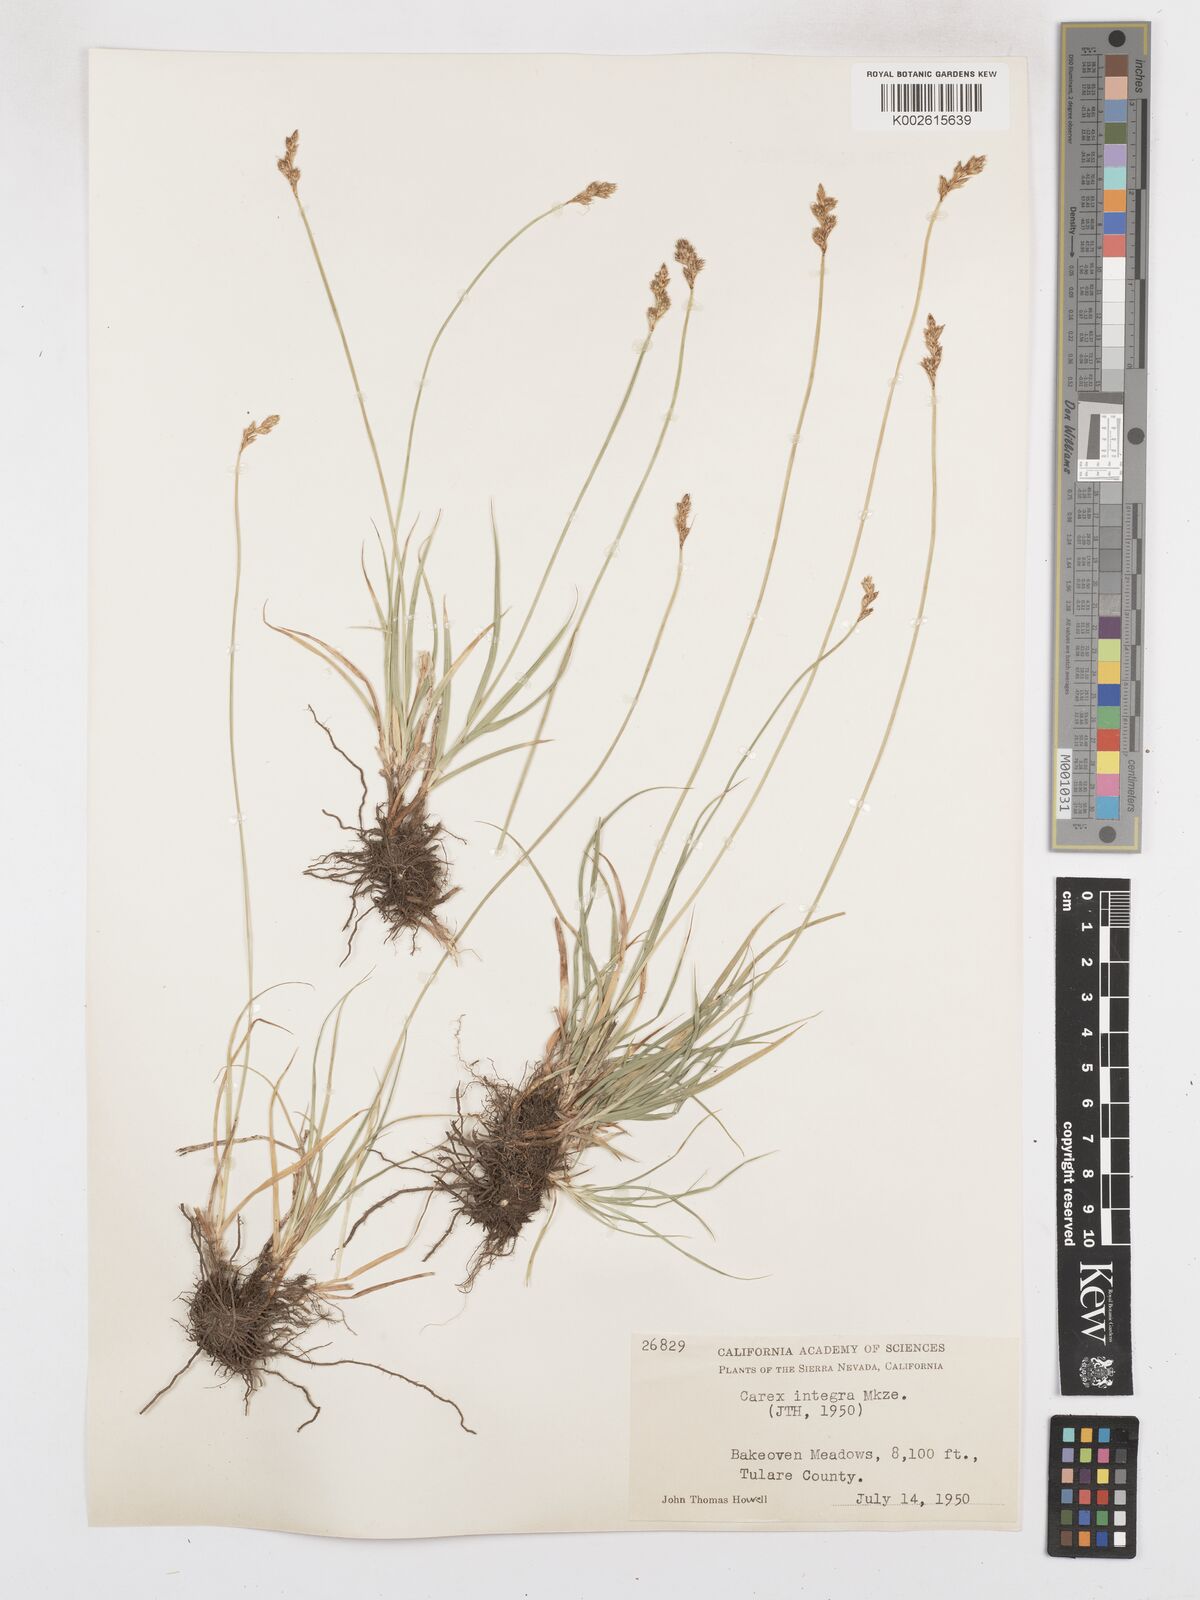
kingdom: Plantae
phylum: Tracheophyta
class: Liliopsida
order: Poales
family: Cyperaceae
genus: Carex
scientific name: Carex integra
